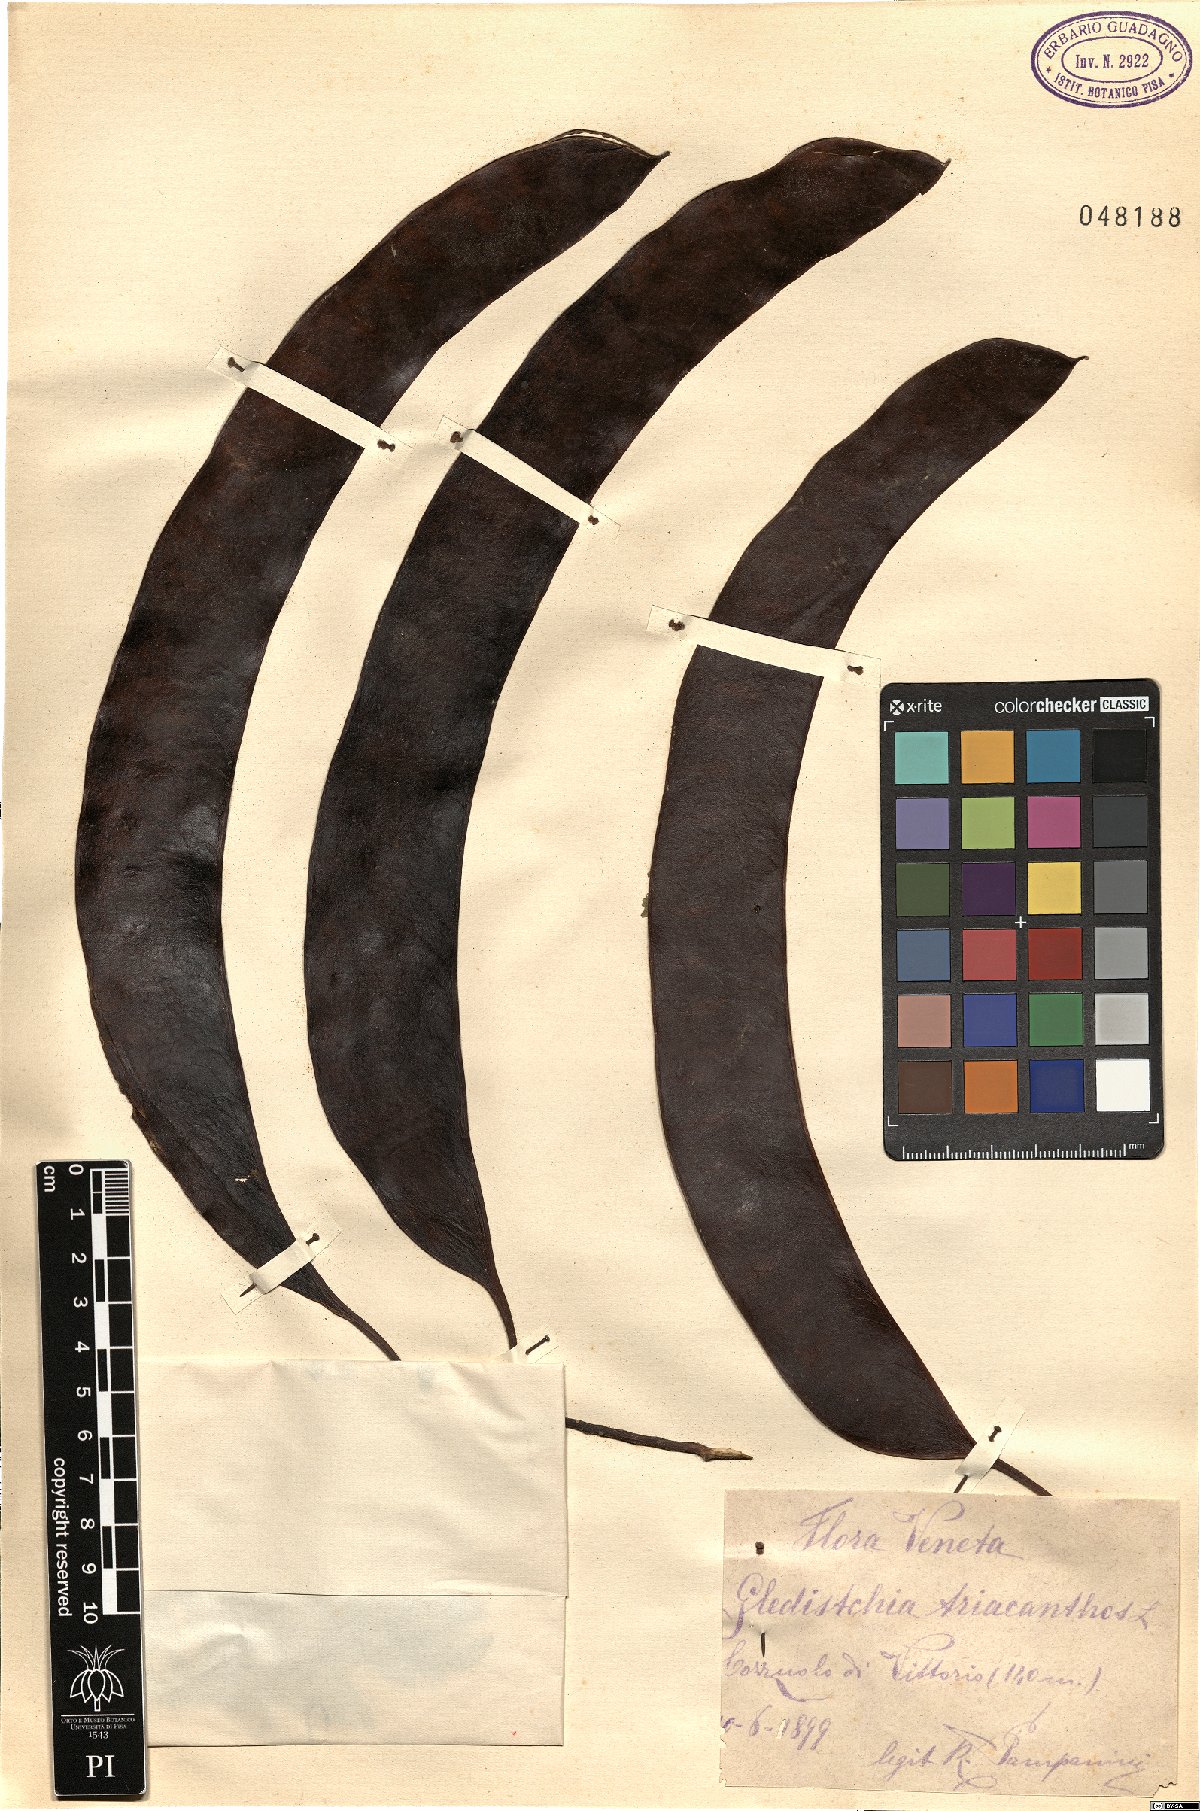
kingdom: Plantae
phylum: Tracheophyta
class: Magnoliopsida
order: Fabales
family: Fabaceae
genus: Gleditsia
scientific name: Gleditsia triacanthos
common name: Common honeylocust
